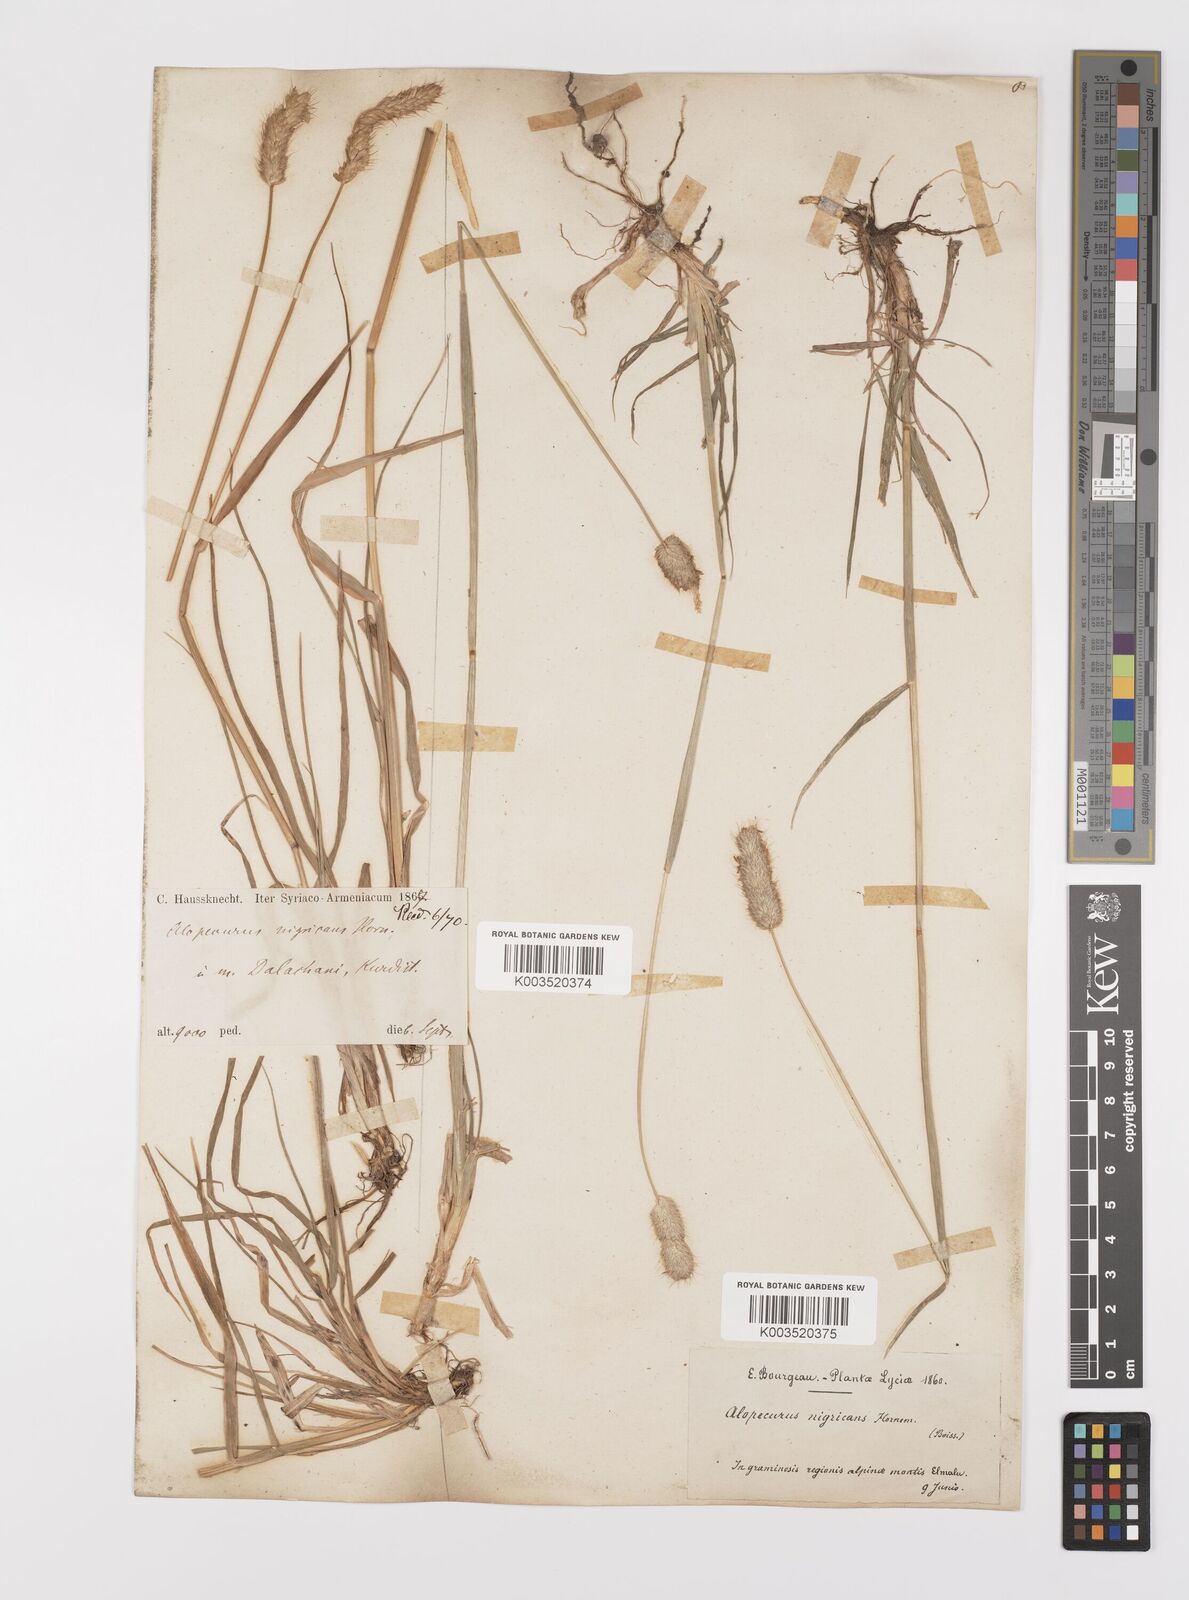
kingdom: Plantae
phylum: Tracheophyta
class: Liliopsida
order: Poales
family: Poaceae
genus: Alopecurus
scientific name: Alopecurus arundinaceus
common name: Creeping meadow foxtail
